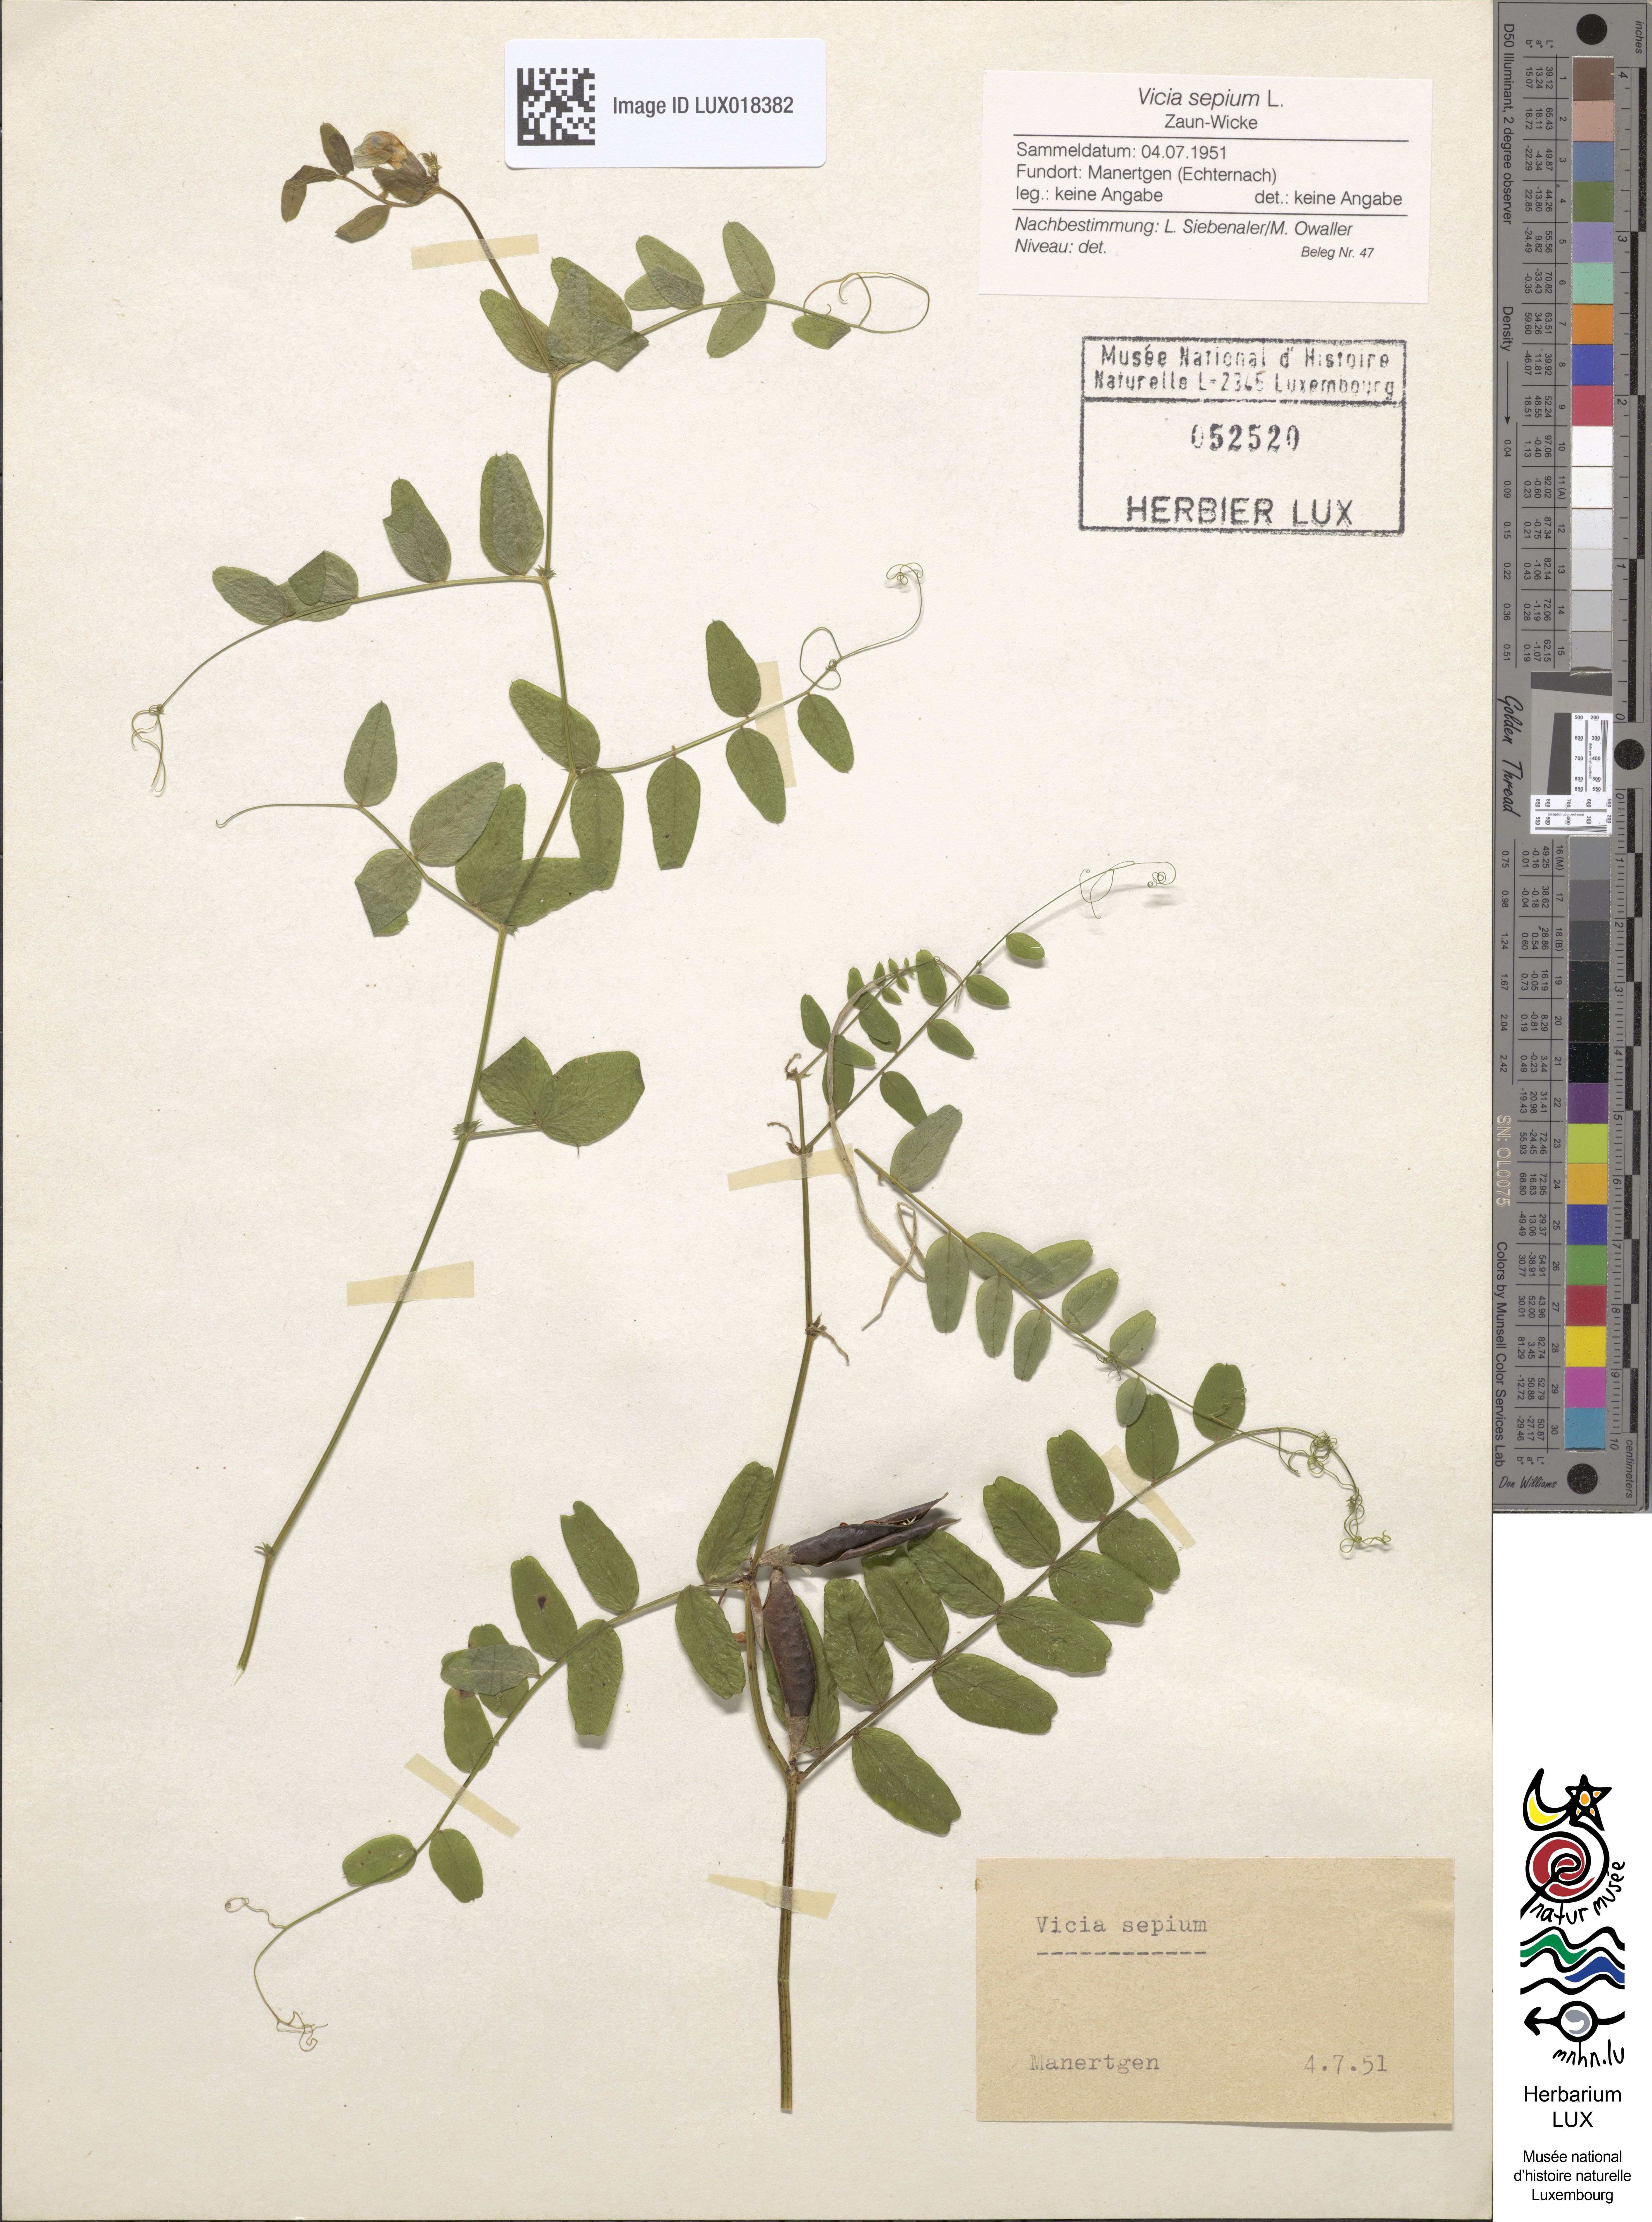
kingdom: Plantae
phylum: Tracheophyta
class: Magnoliopsida
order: Fabales
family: Fabaceae
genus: Vicia
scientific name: Vicia sepium
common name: Bush vetch
